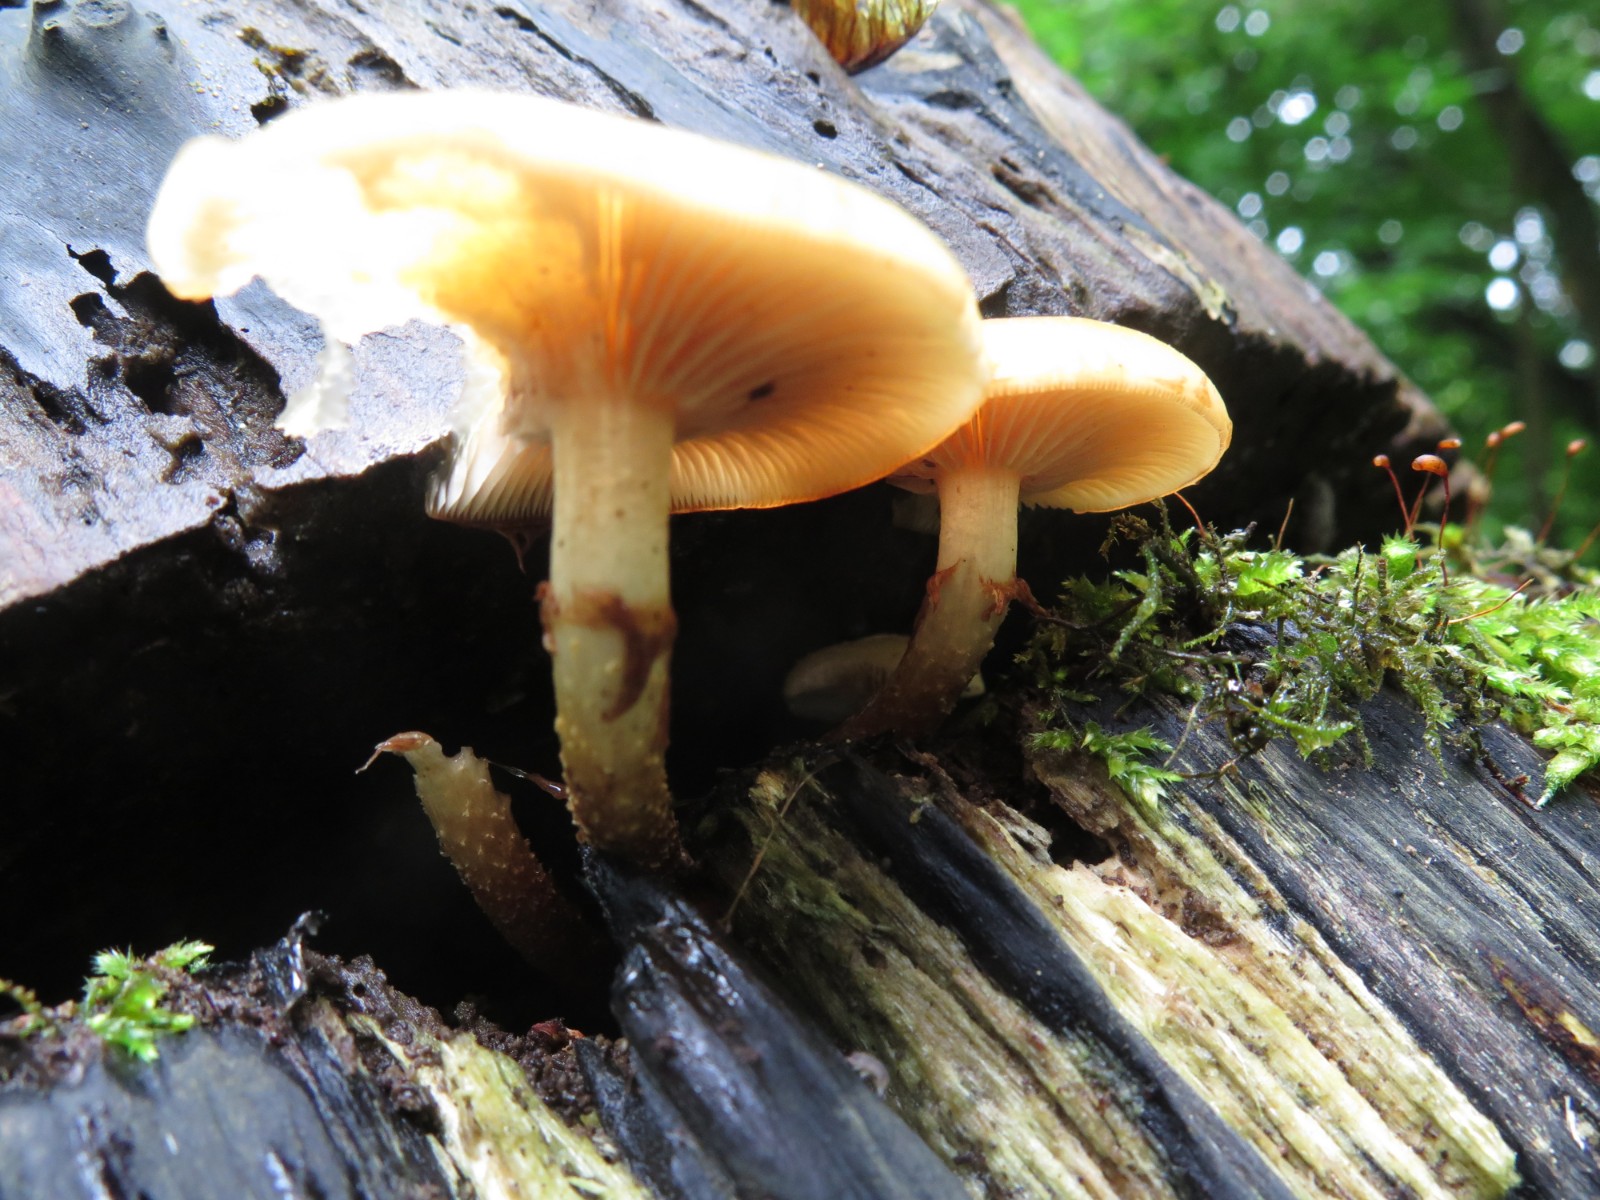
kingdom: Fungi
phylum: Basidiomycota
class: Agaricomycetes
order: Agaricales
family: Strophariaceae
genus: Kuehneromyces
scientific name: Kuehneromyces mutabilis
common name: foranderlig skælhat
